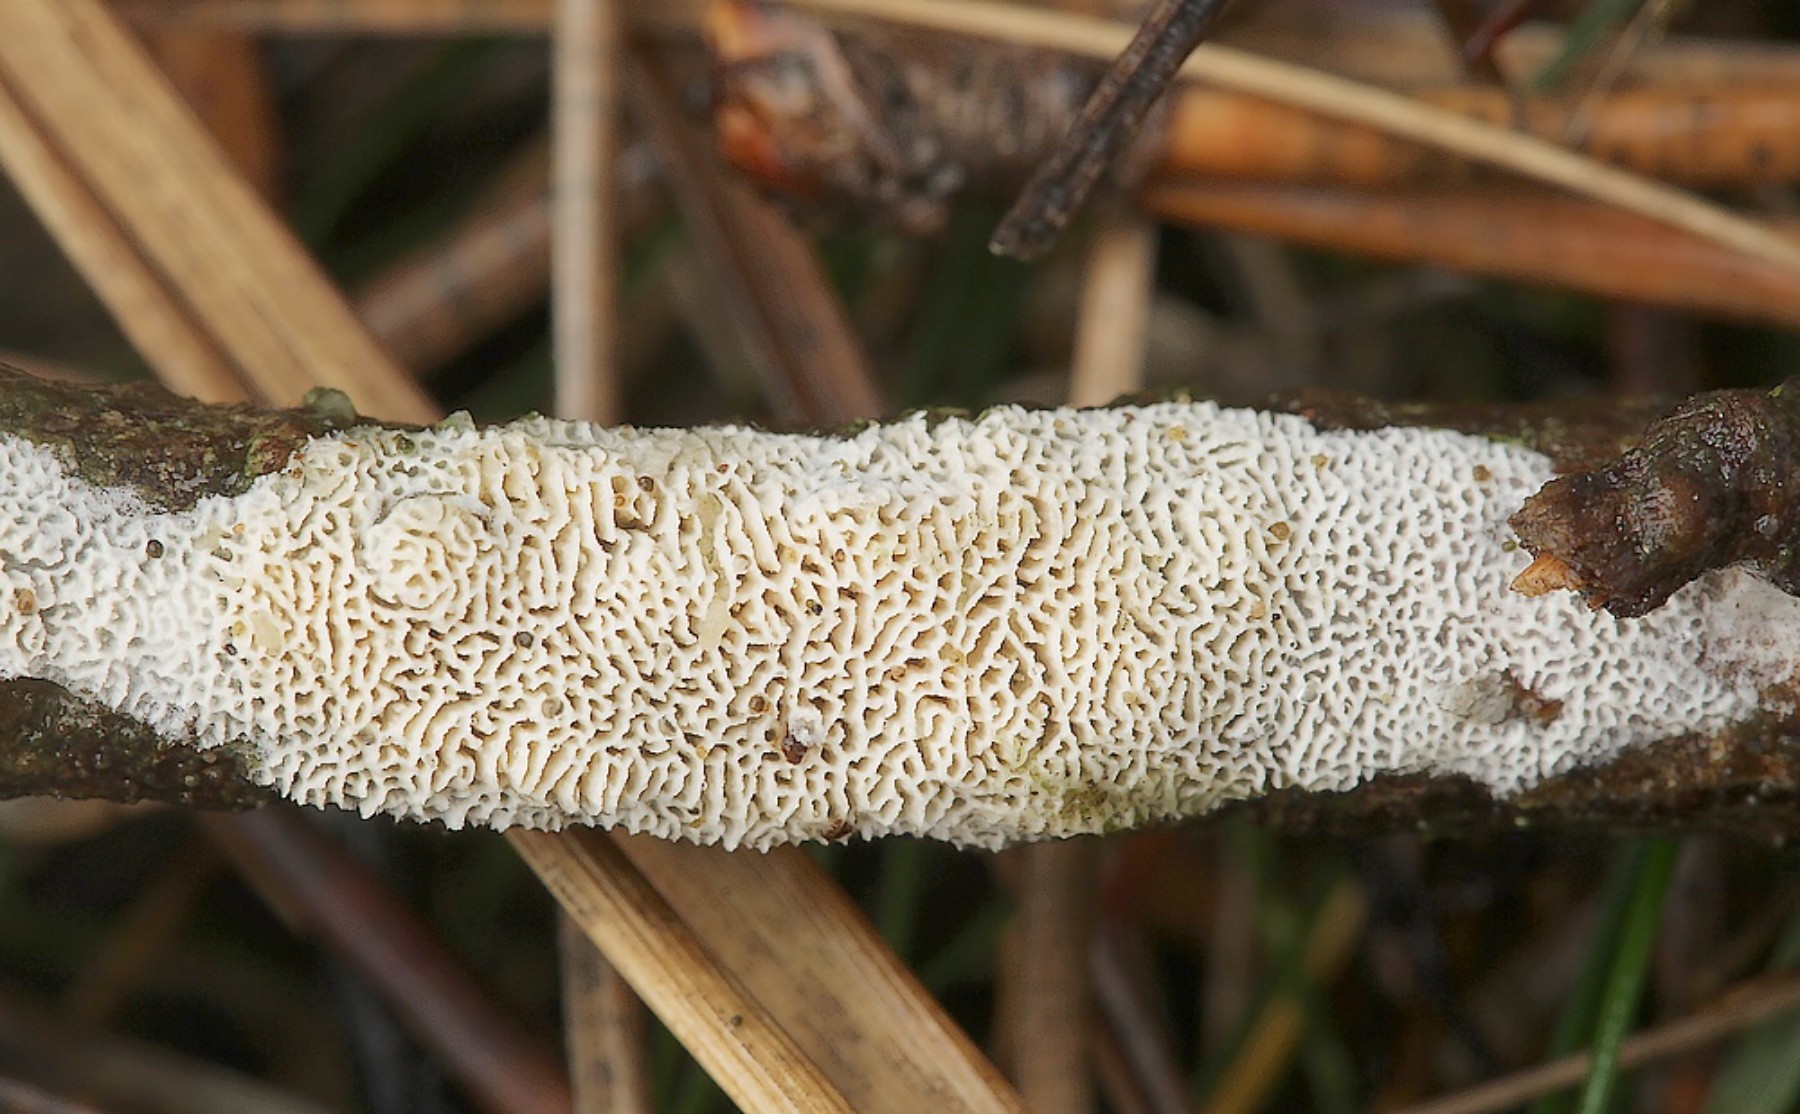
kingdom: Fungi
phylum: Basidiomycota
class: Agaricomycetes
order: Hymenochaetales
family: Schizoporaceae
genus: Xylodon
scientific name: Xylodon subtropicus
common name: labyrint-tandsvamp
